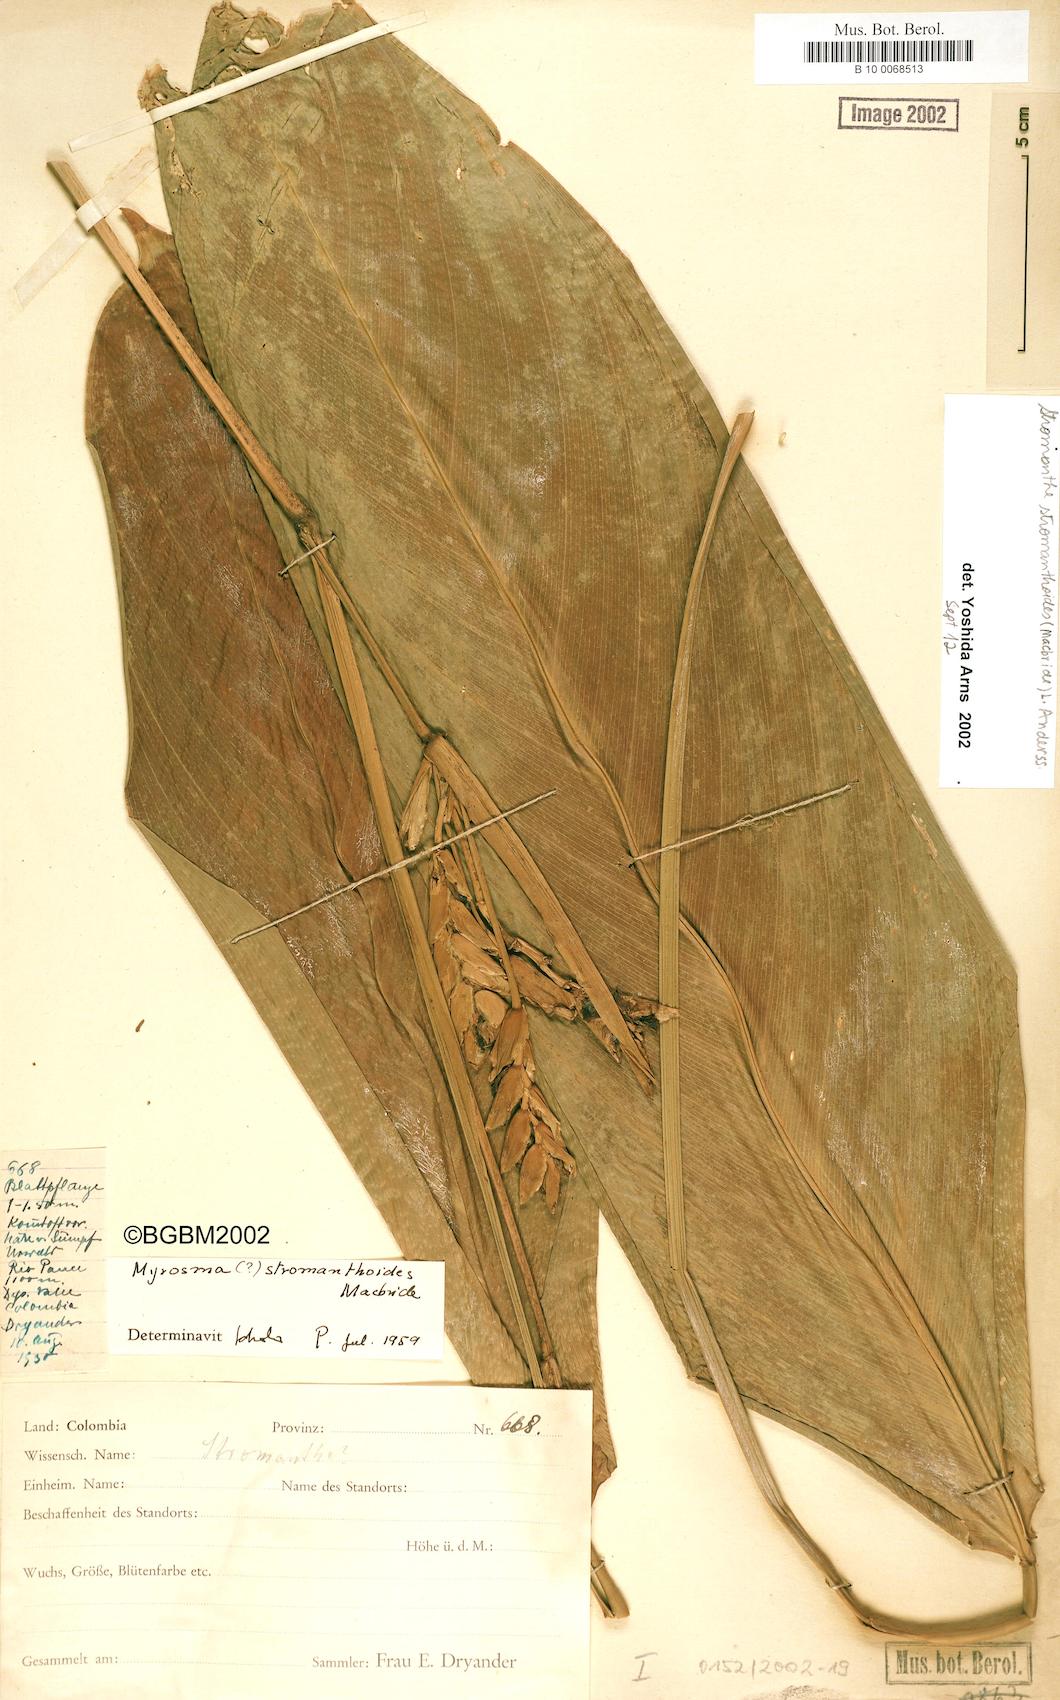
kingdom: Plantae
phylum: Tracheophyta
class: Liliopsida
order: Zingiberales
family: Marantaceae
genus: Stromanthe
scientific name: Stromanthe stromanthoides
